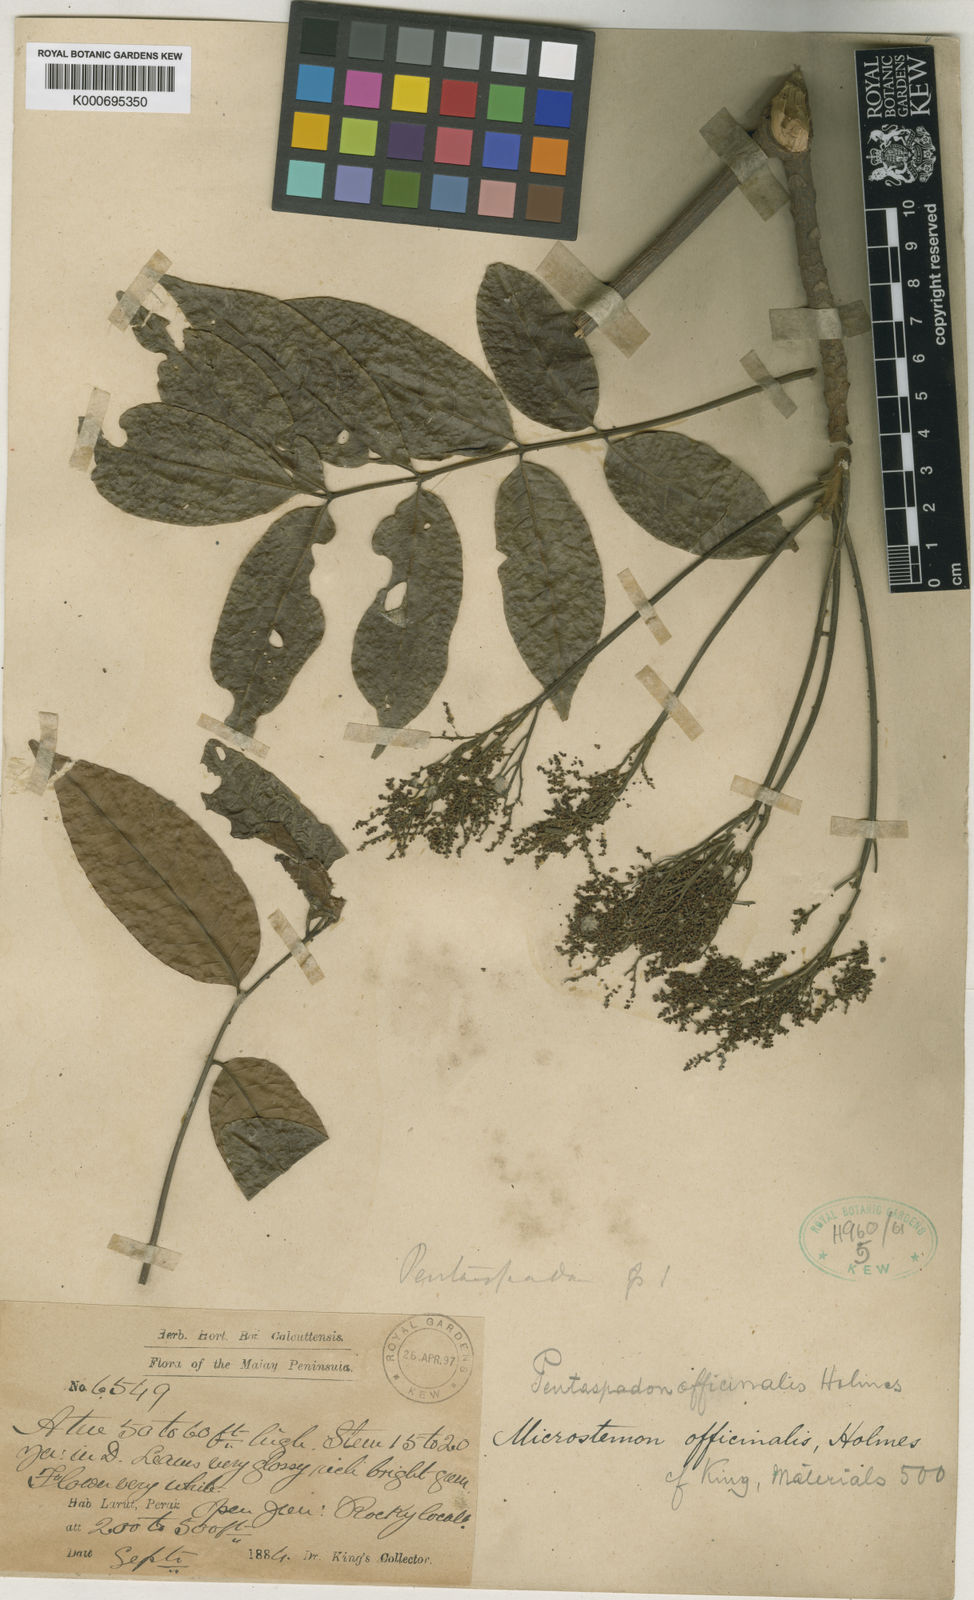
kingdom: Plantae
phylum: Tracheophyta
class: Magnoliopsida
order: Sapindales
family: Anacardiaceae
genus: Pentaspadon
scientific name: Pentaspadon motleyi
